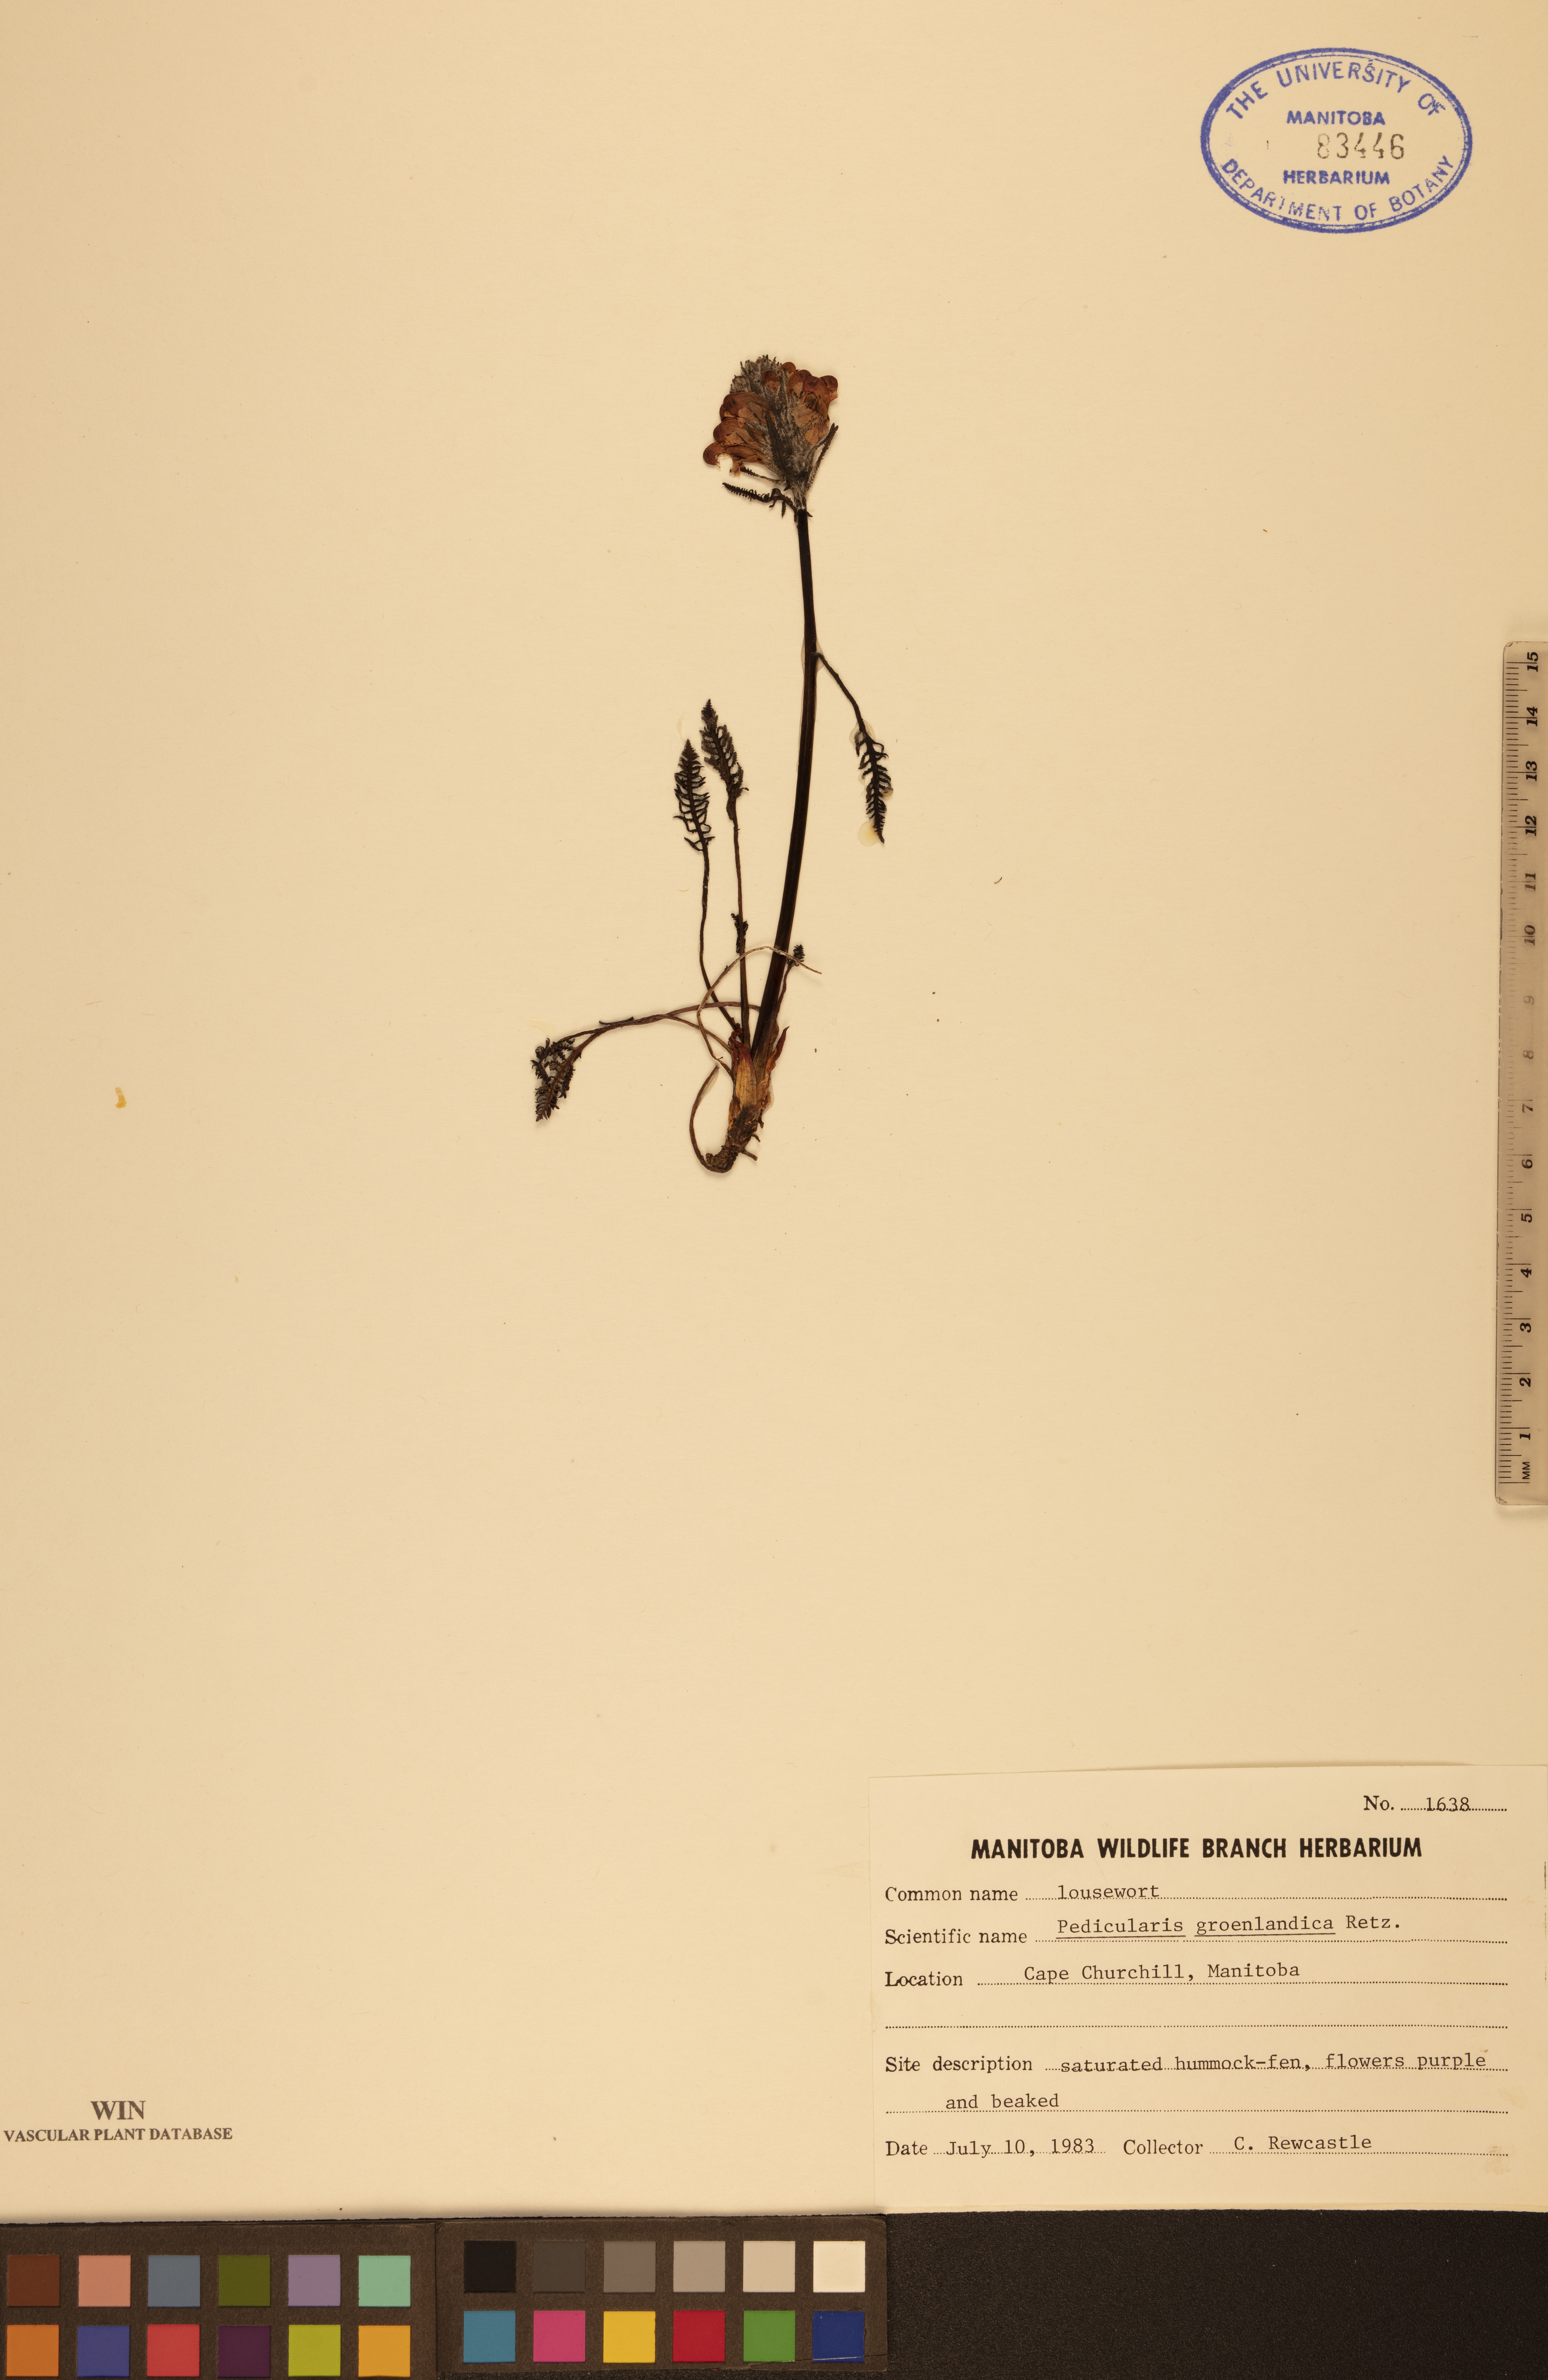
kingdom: Plantae
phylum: Tracheophyta
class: Magnoliopsida
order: Lamiales
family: Orobanchaceae
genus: Pedicularis
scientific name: Pedicularis groenlandica
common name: Elephant's-head
